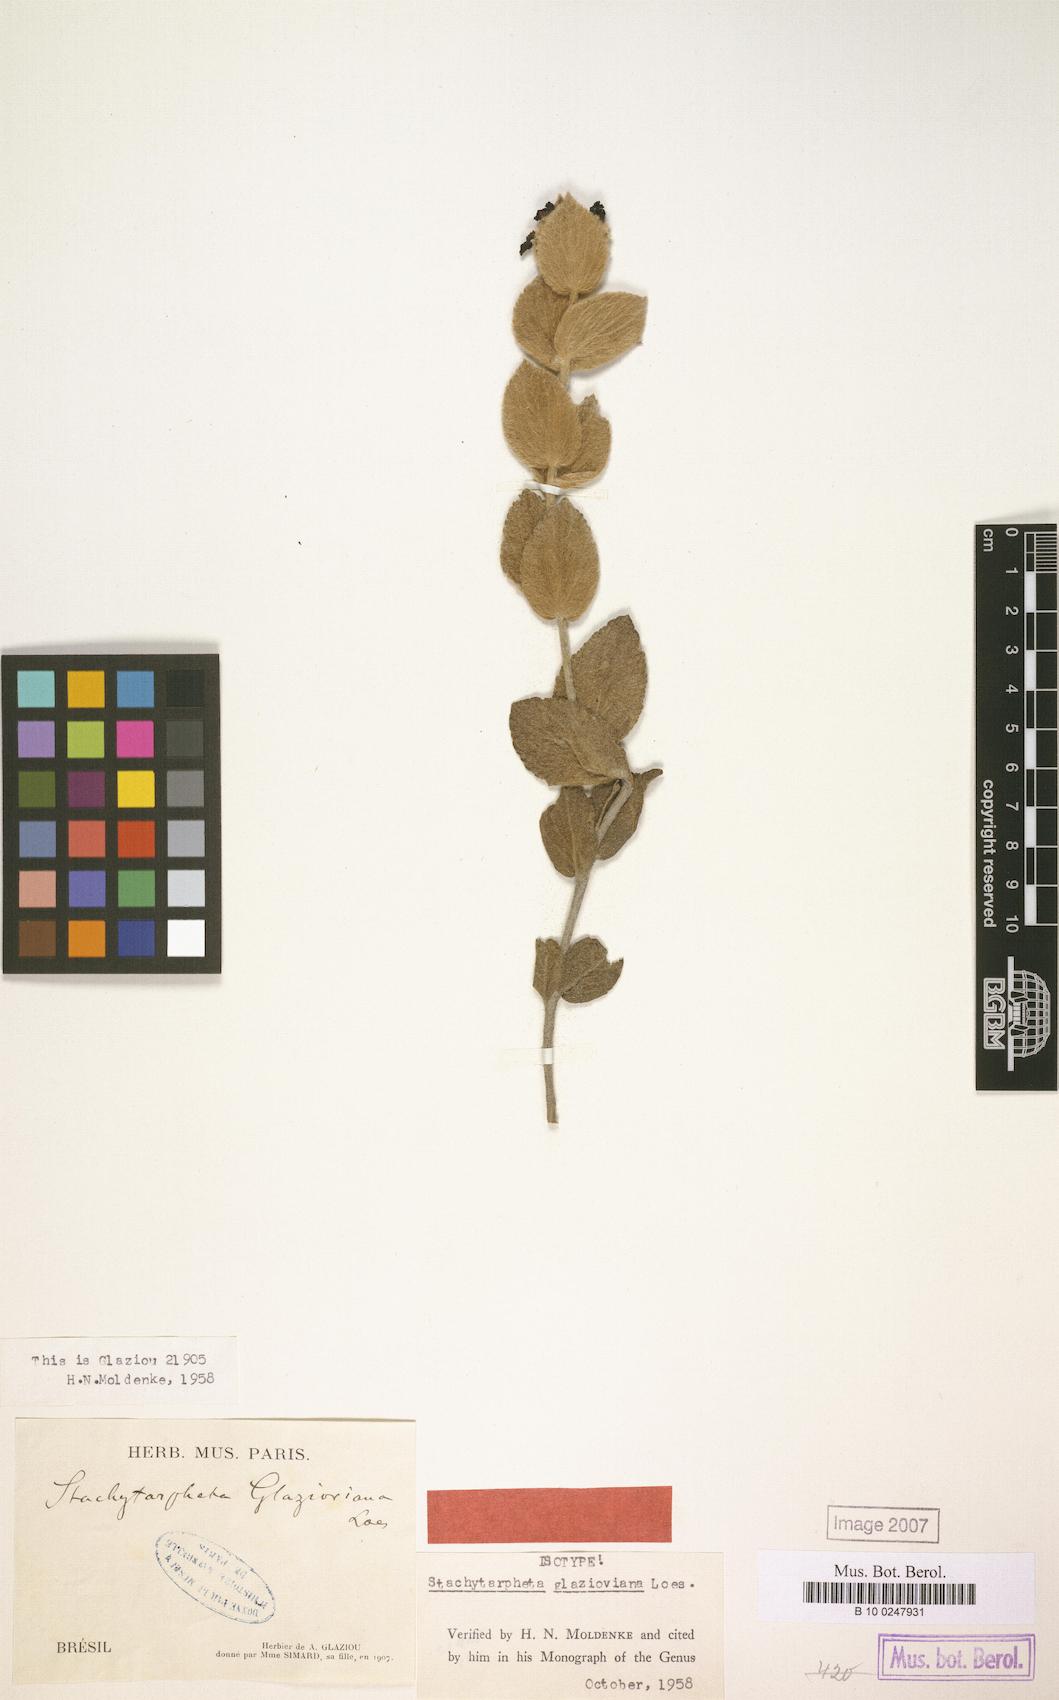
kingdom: Plantae
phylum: Tracheophyta
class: Magnoliopsida
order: Lamiales
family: Verbenaceae
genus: Stachytarpheta
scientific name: Stachytarpheta glazioviana
